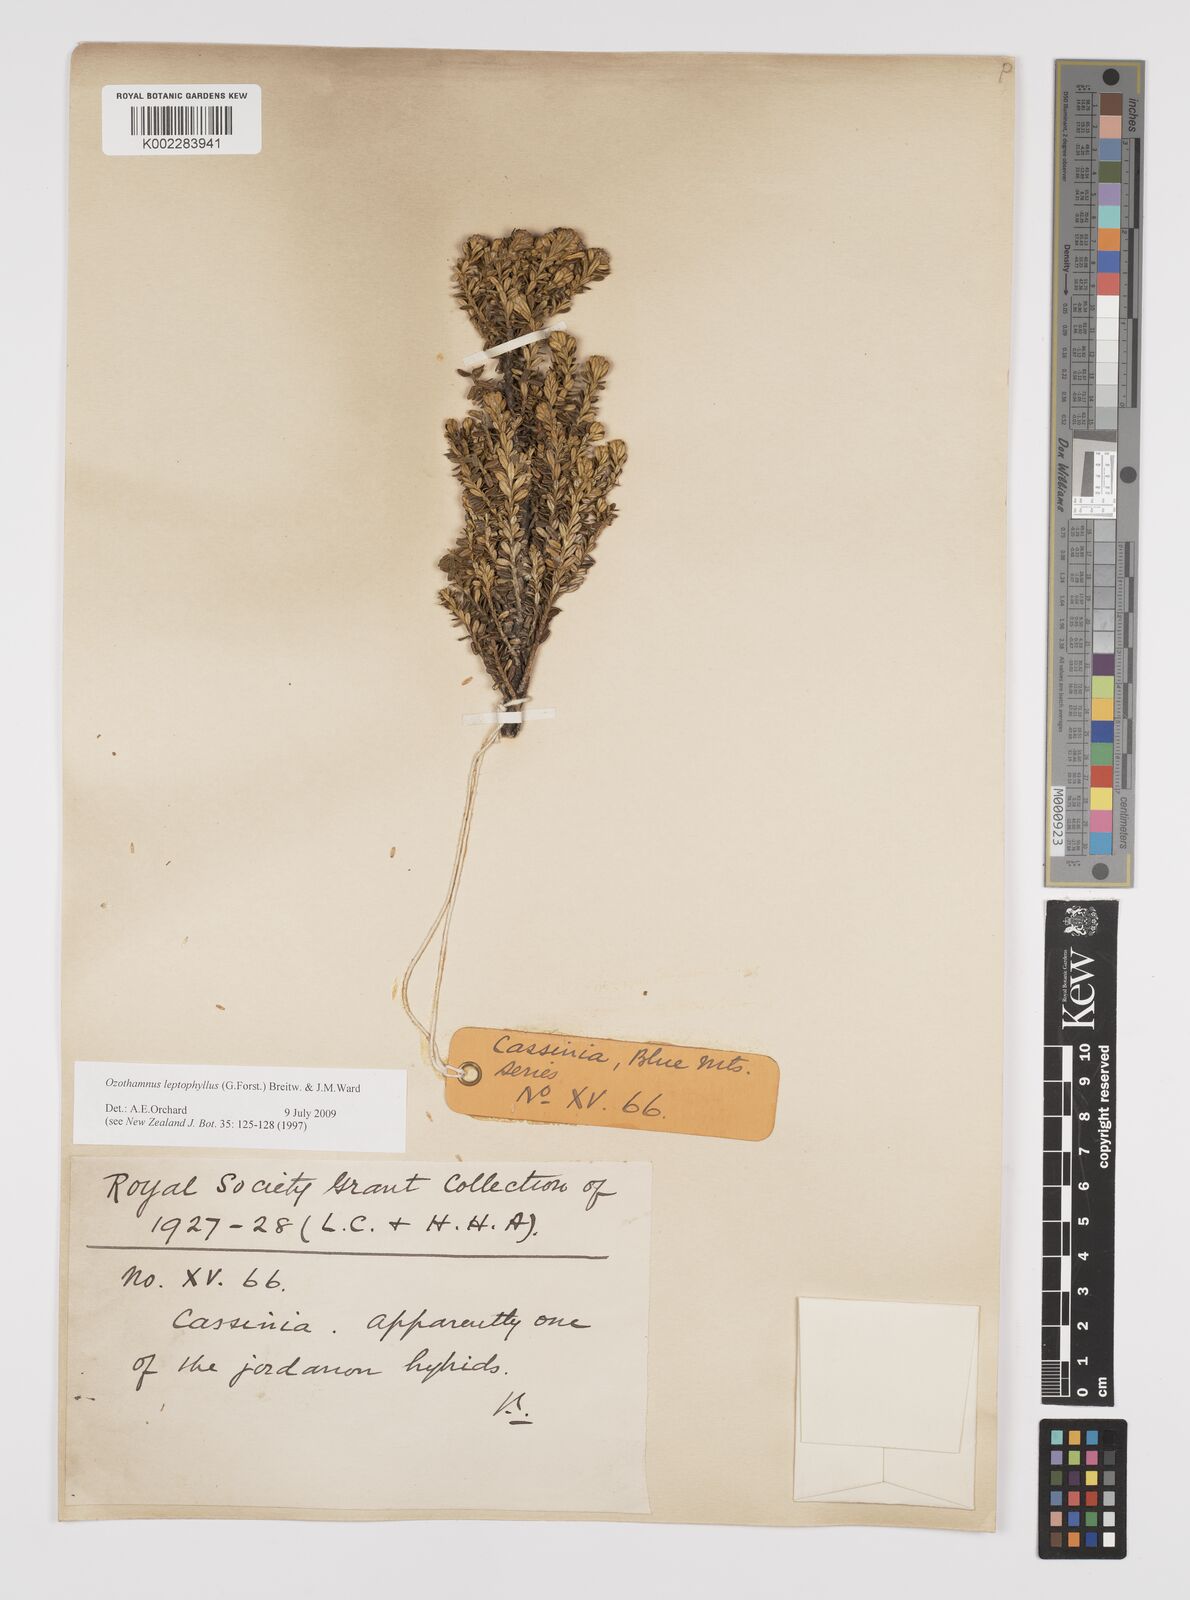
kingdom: Plantae
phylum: Tracheophyta
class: Magnoliopsida
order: Asterales
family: Asteraceae
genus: Ozothamnus
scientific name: Ozothamnus leptophyllus
